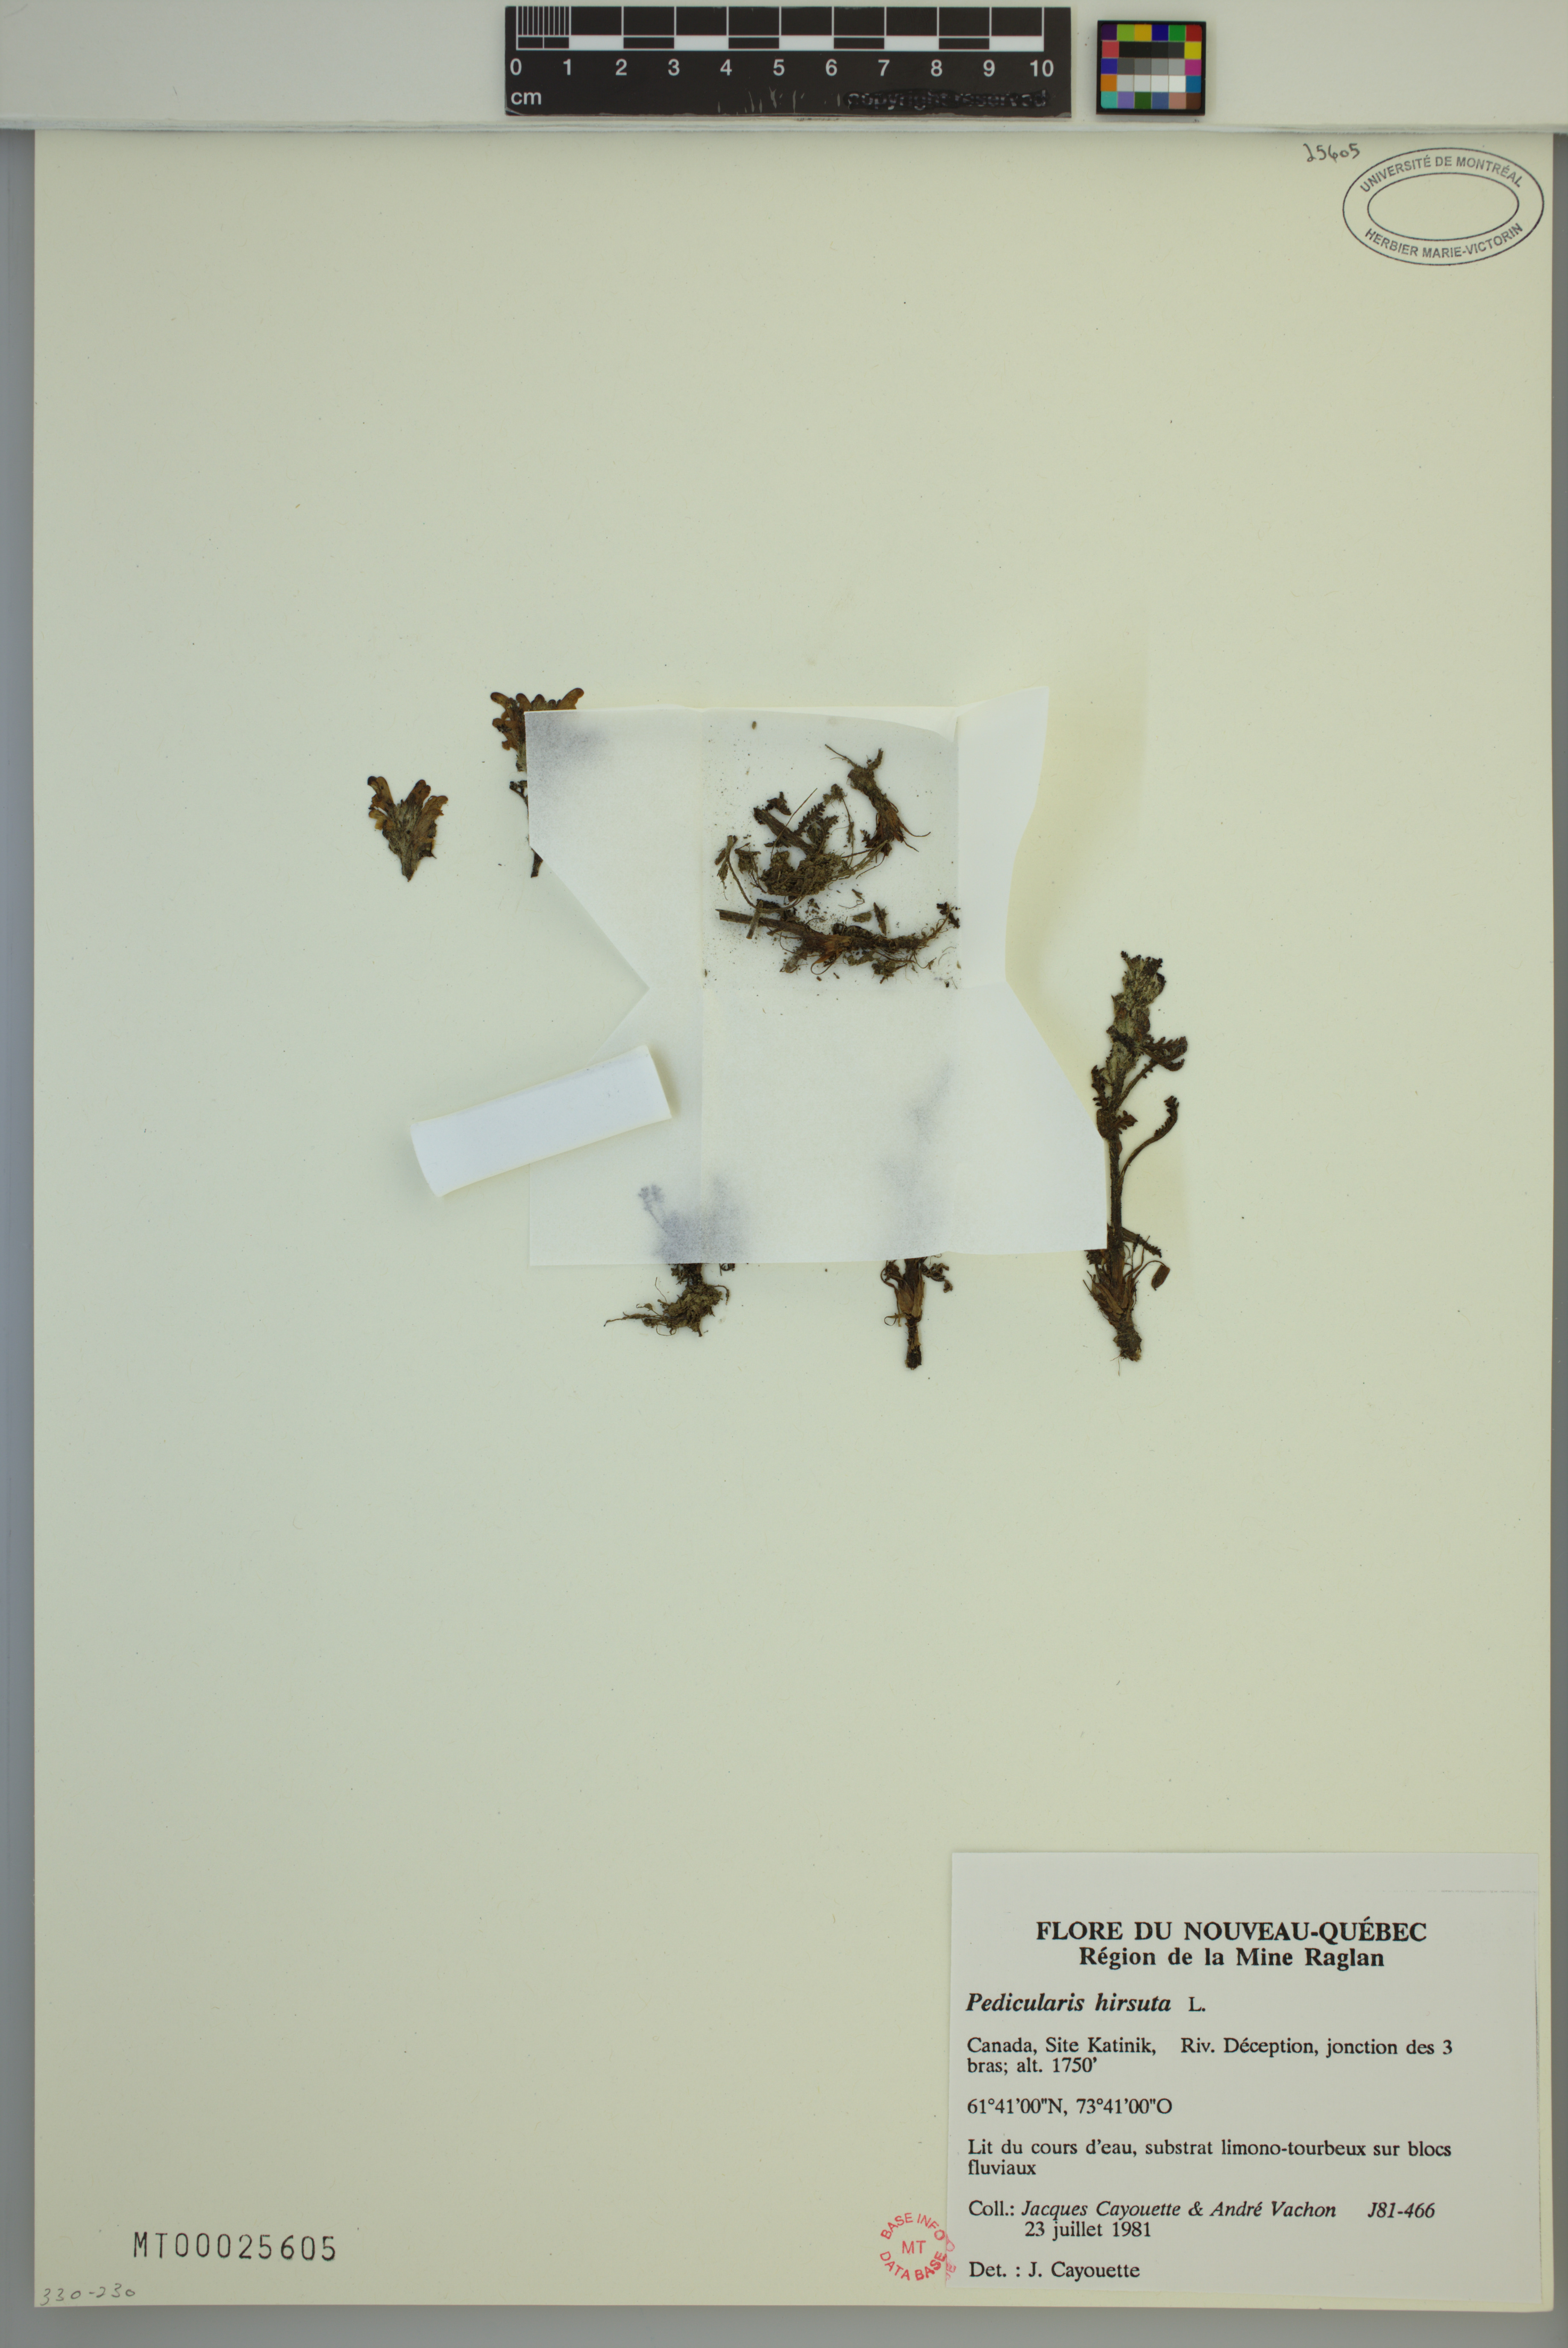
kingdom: Plantae
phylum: Tracheophyta
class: Magnoliopsida
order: Lamiales
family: Orobanchaceae
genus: Pedicularis
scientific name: Pedicularis hirsuta
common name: Hairy lousewort
